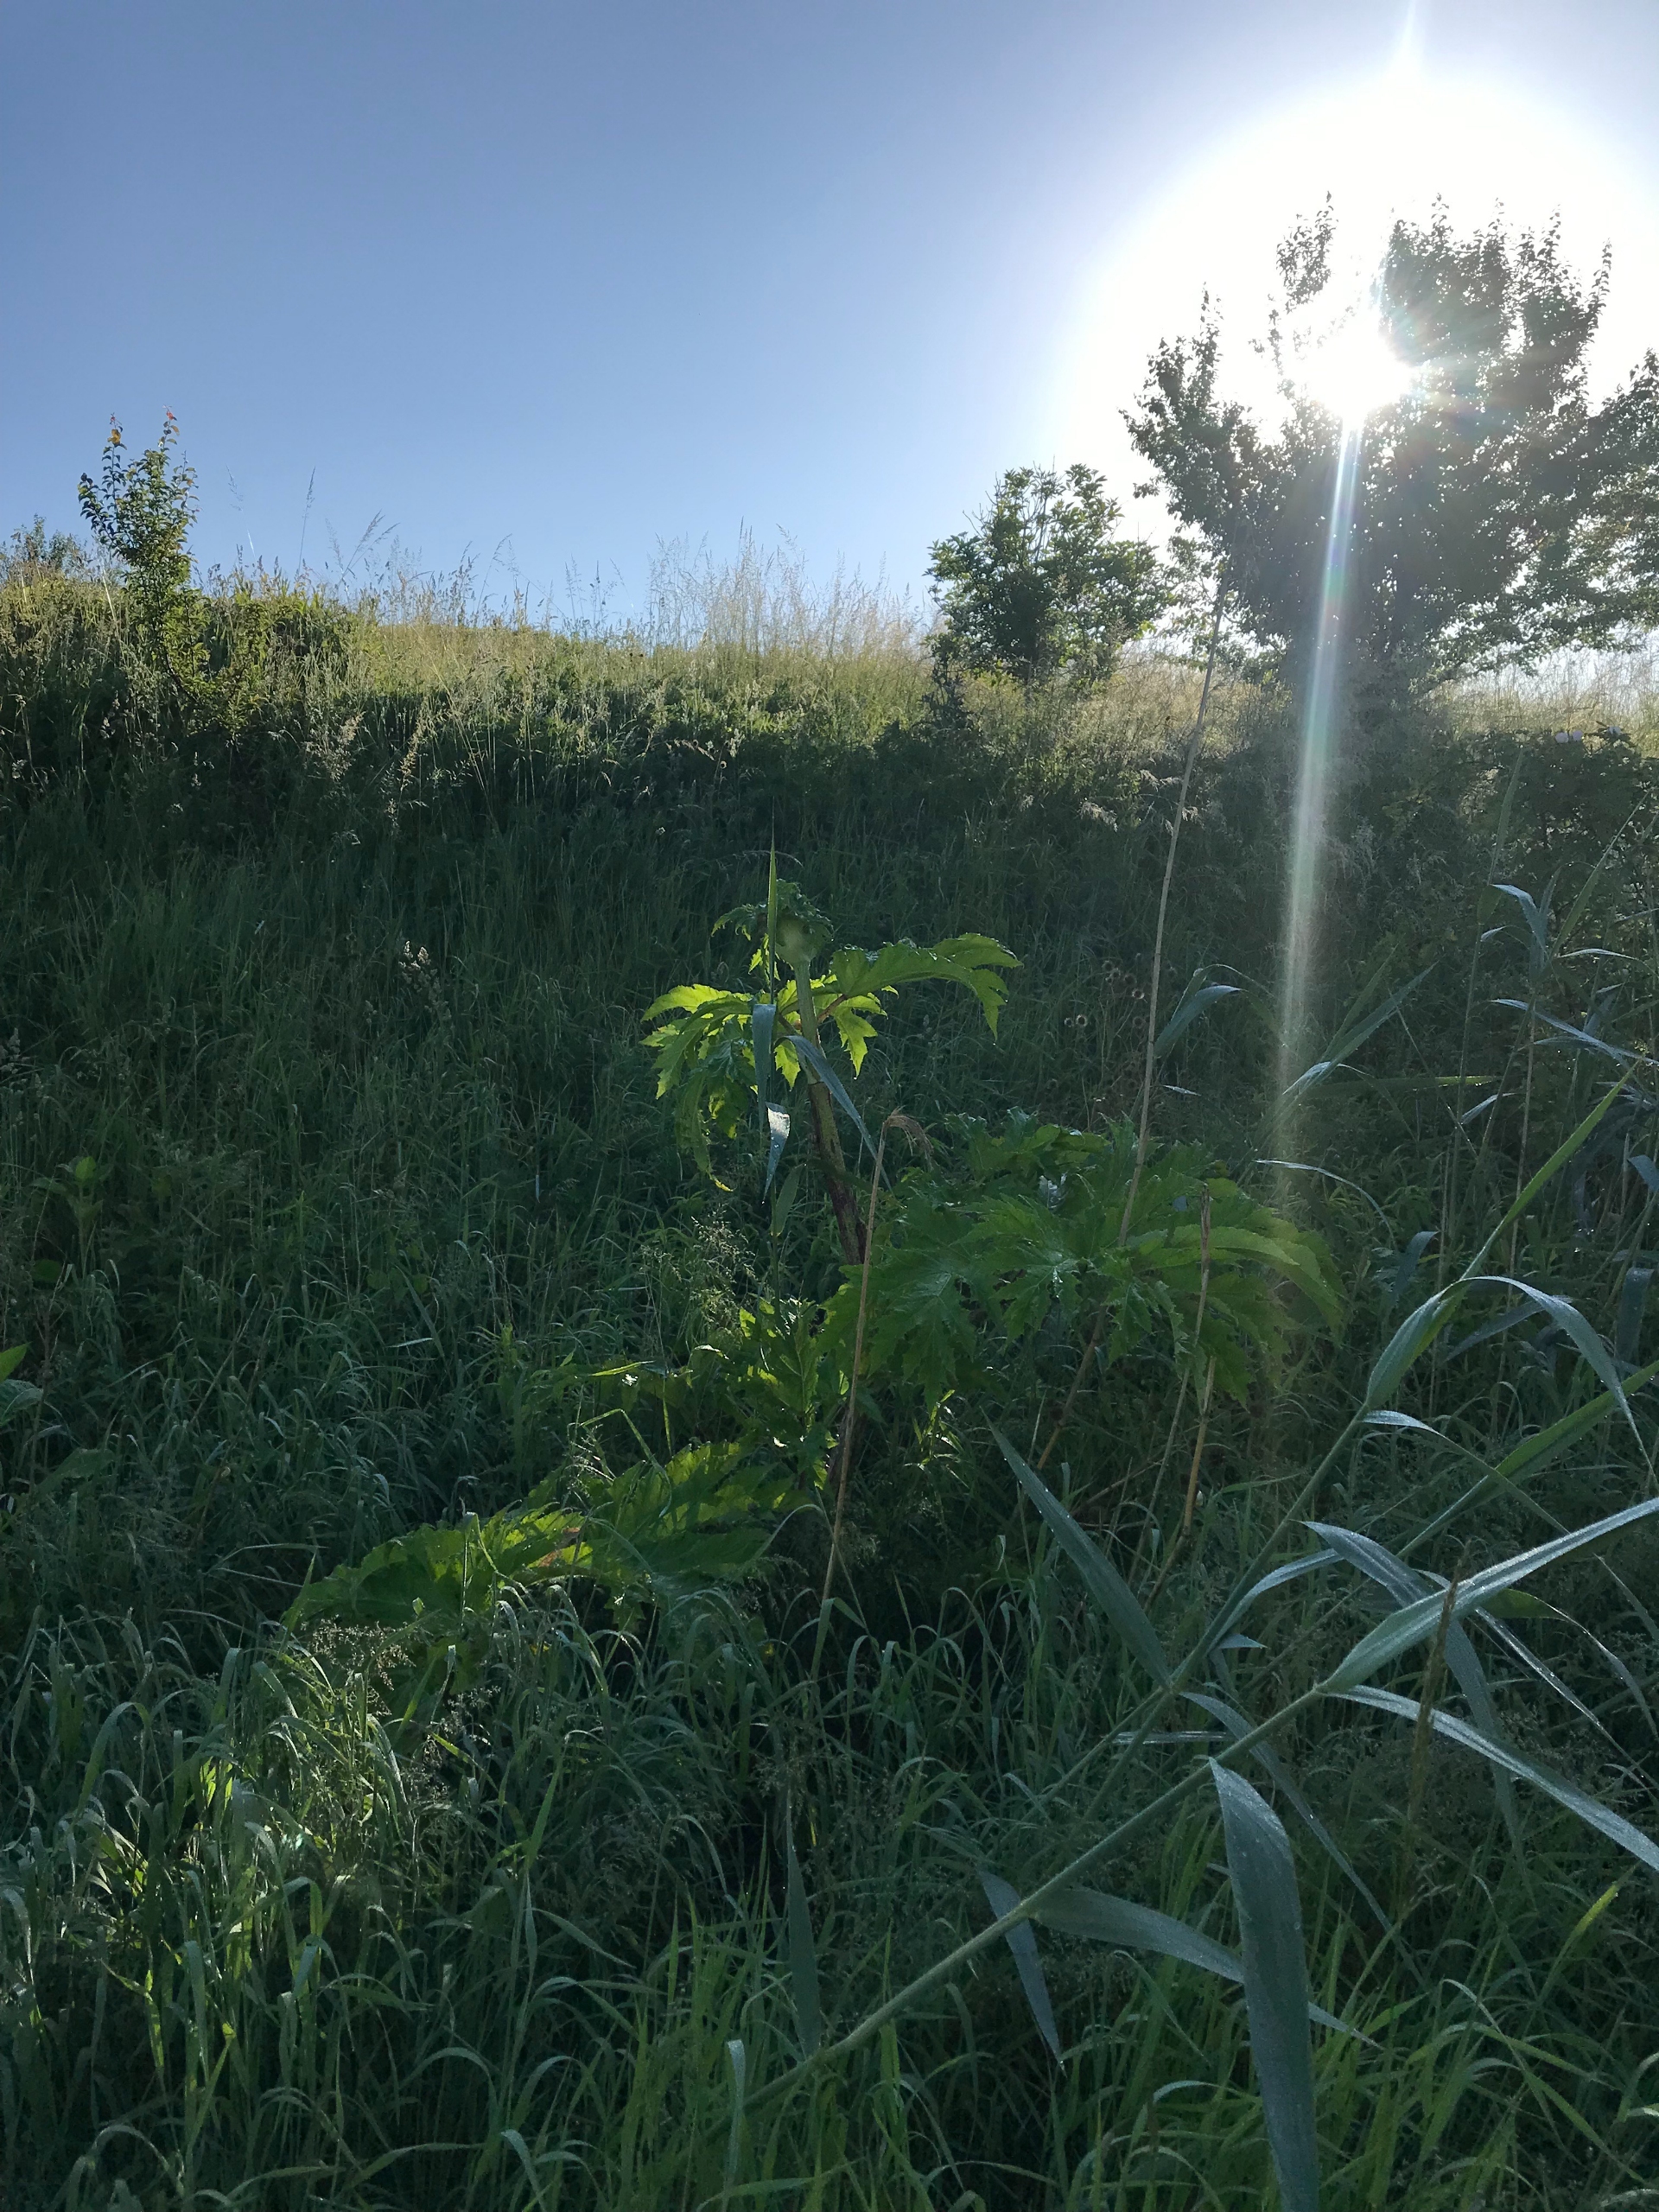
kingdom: Plantae
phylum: Tracheophyta
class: Magnoliopsida
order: Apiales
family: Apiaceae
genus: Heracleum
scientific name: Heracleum mantegazzianum
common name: Kæmpe-bjørneklo
